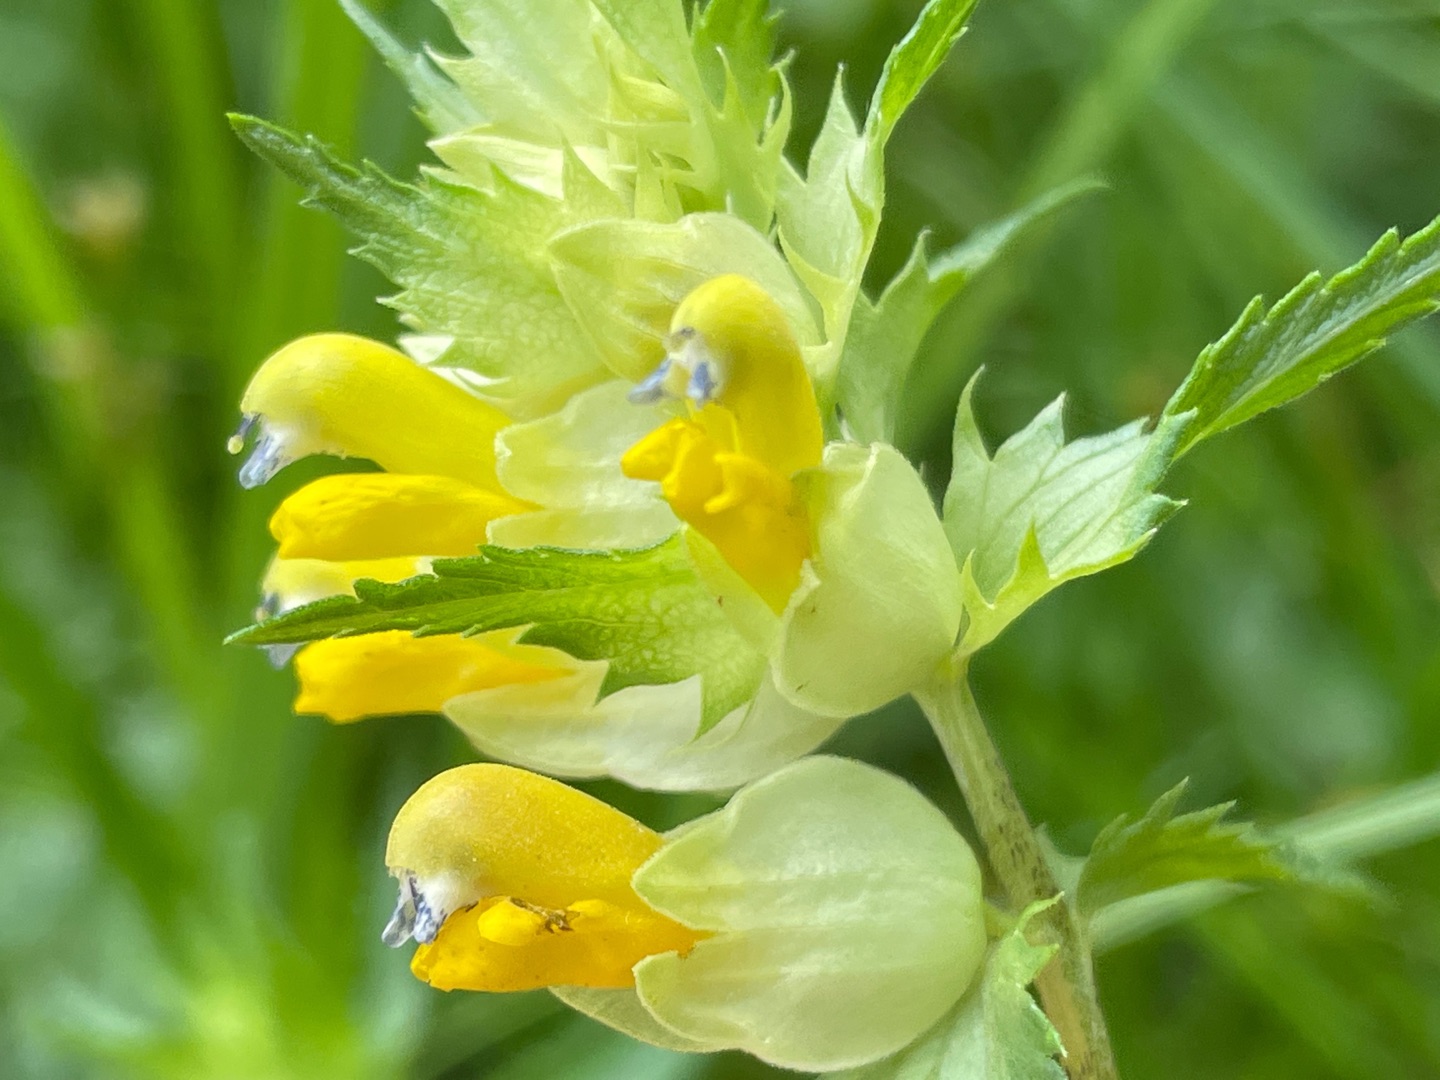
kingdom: Plantae
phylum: Tracheophyta
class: Magnoliopsida
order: Lamiales
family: Orobanchaceae
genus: Rhinanthus
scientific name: Rhinanthus
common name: Stor skjaller
